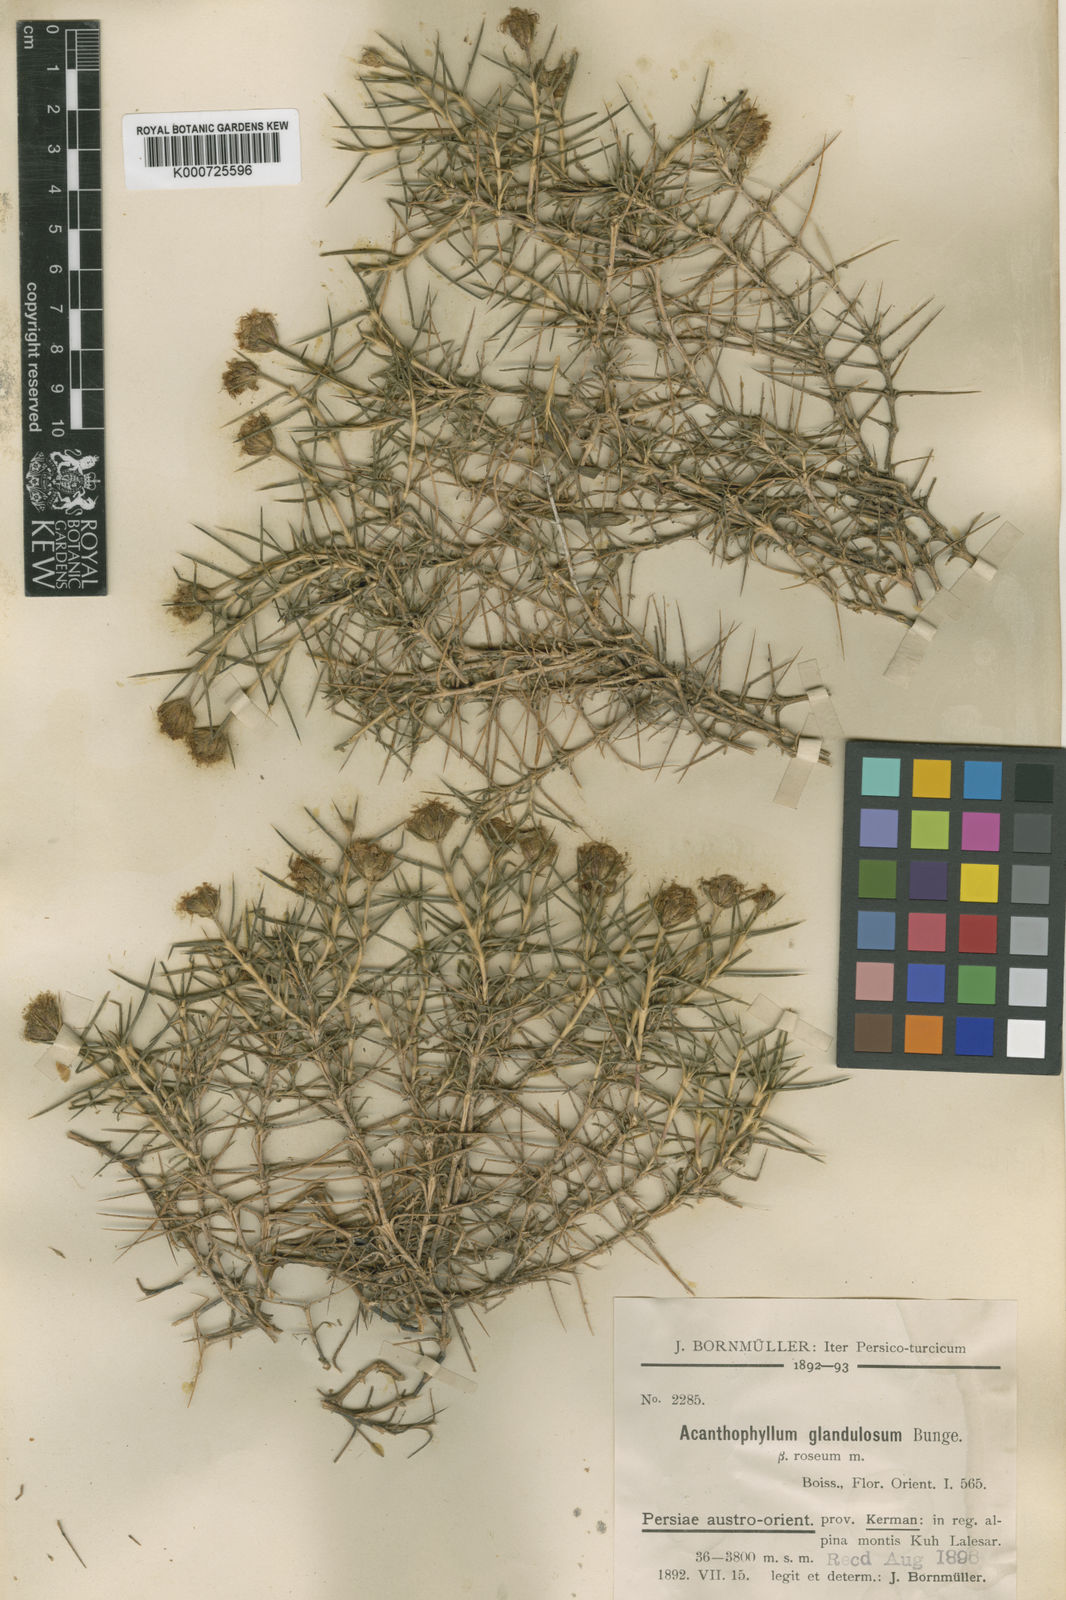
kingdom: Plantae
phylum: Tracheophyta
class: Magnoliopsida
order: Caryophyllales
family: Caryophyllaceae
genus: Acanthophyllum
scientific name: Acanthophyllum
